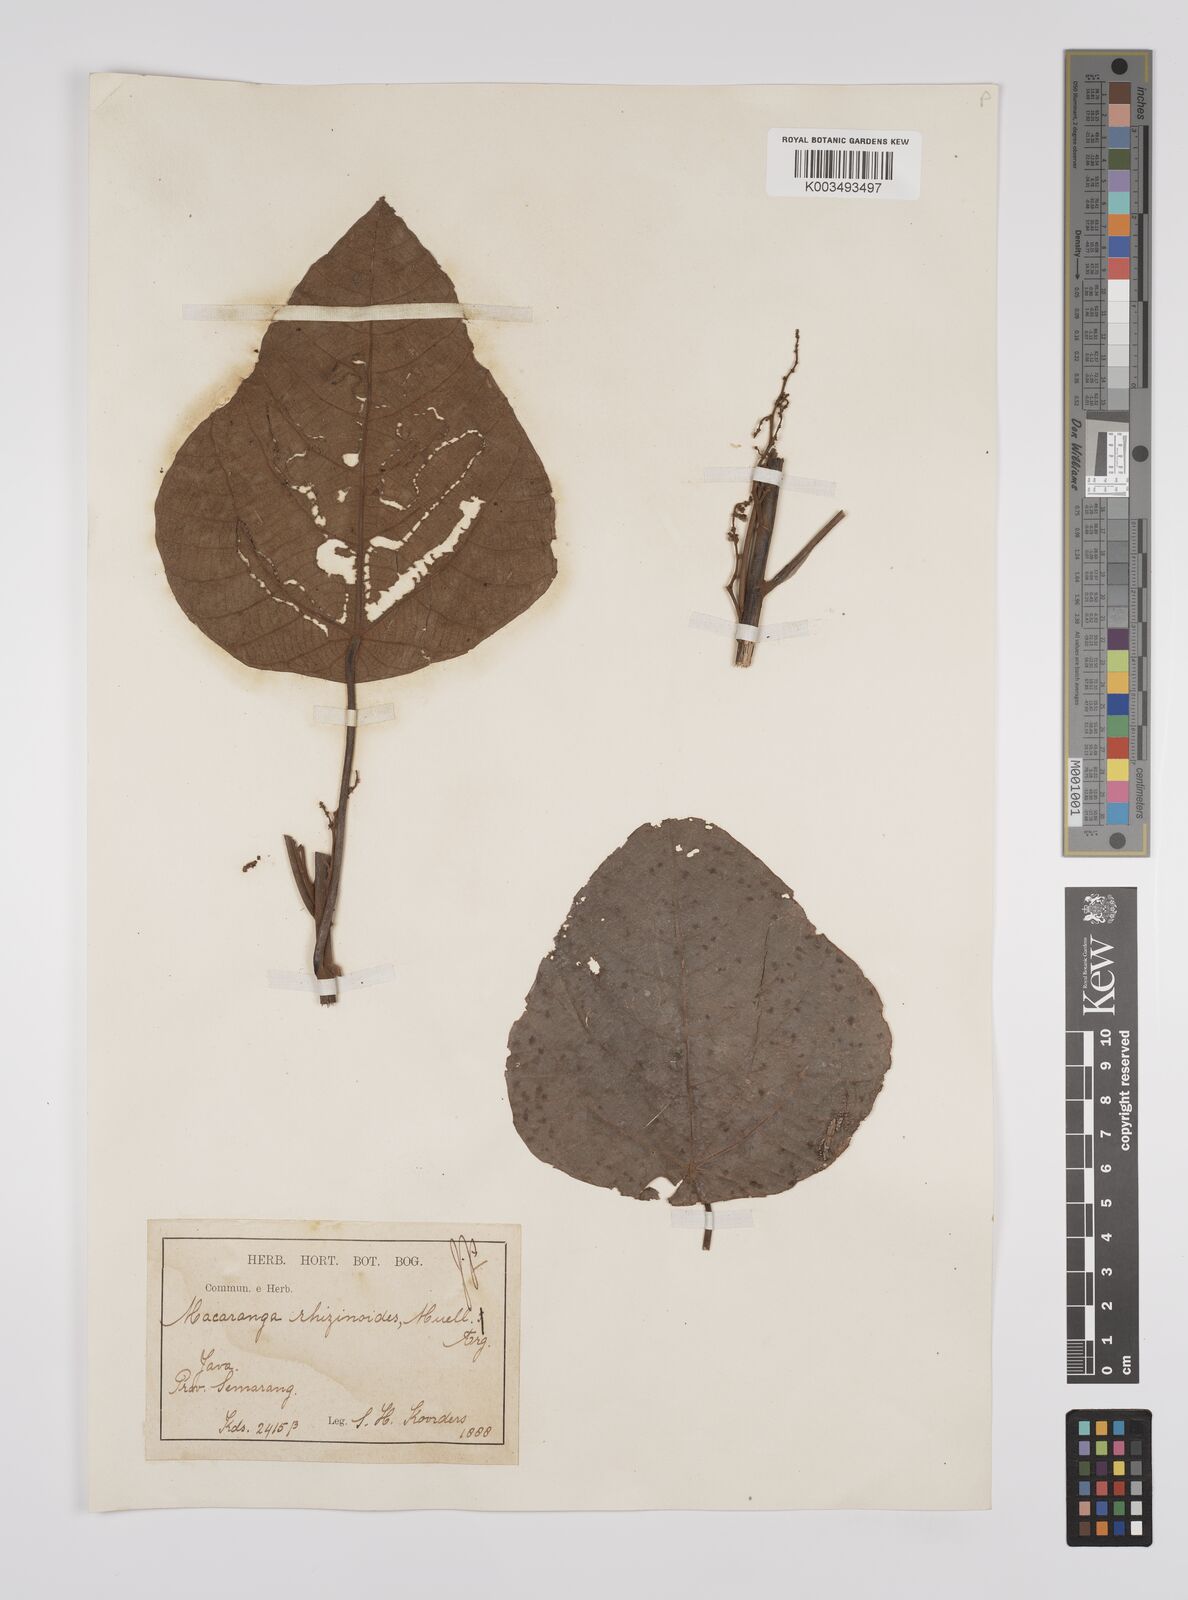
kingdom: Plantae
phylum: Tracheophyta
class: Magnoliopsida
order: Malpighiales
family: Euphorbiaceae
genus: Macaranga
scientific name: Macaranga rhizinoides
